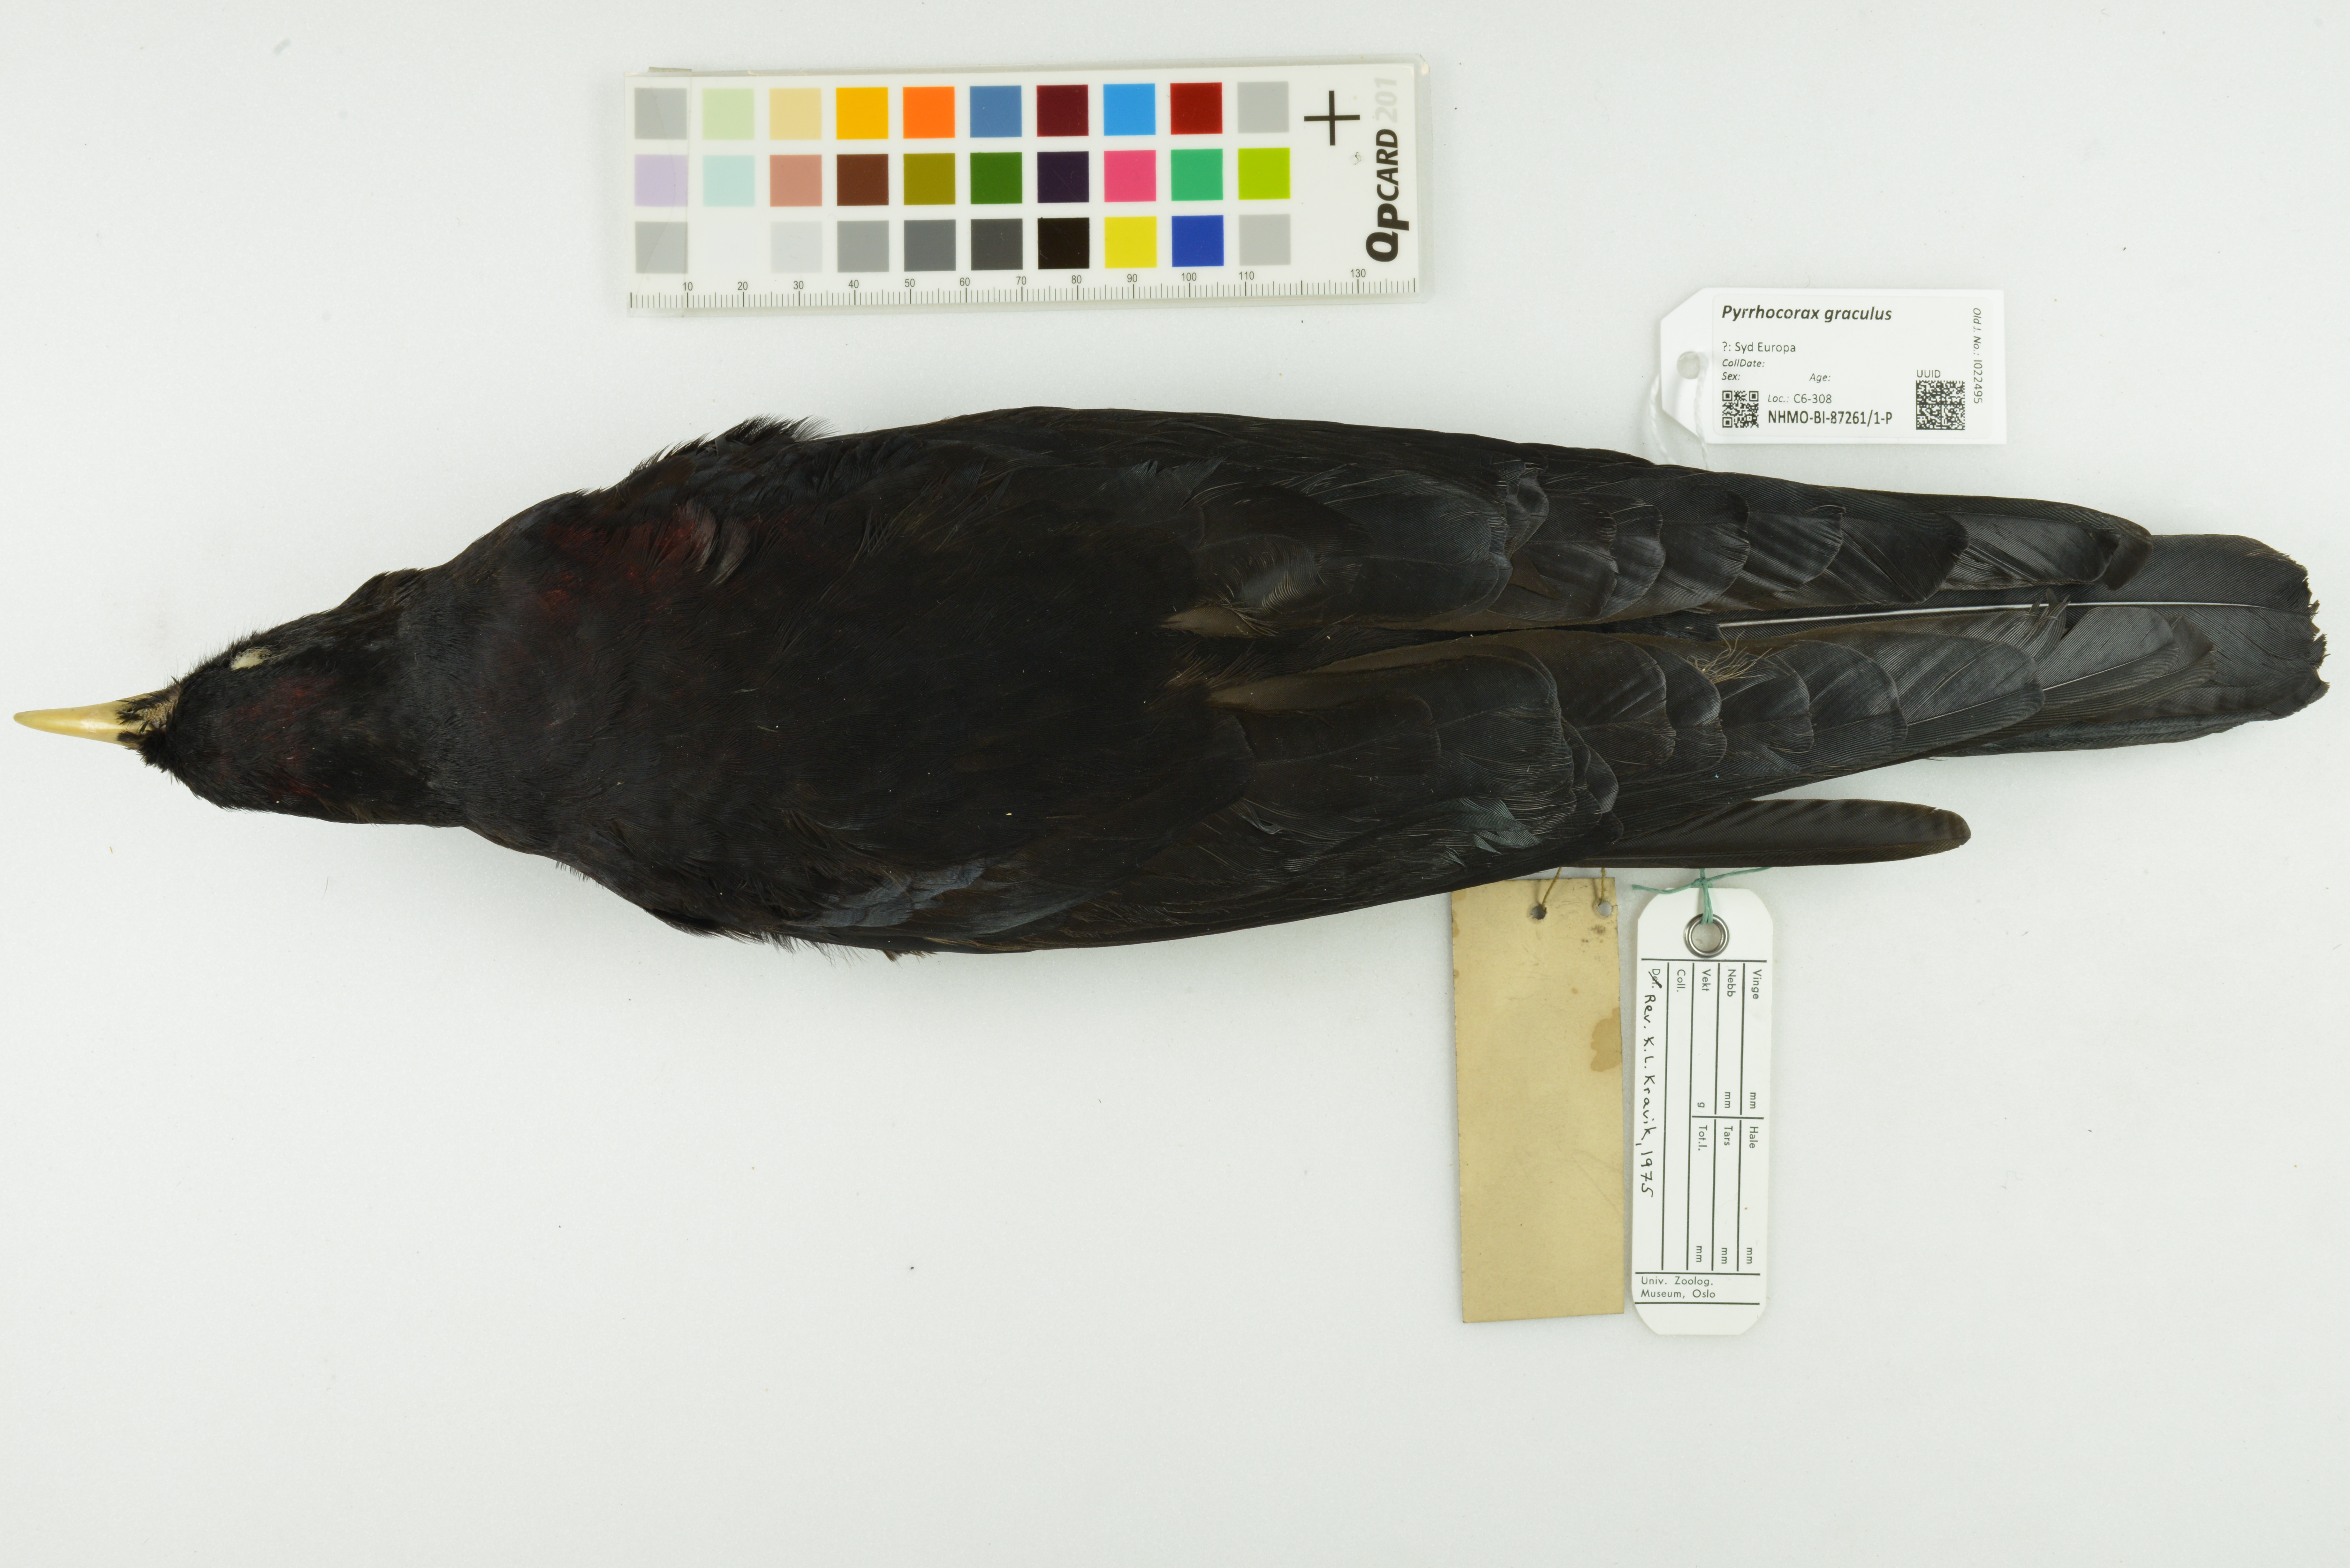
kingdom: Animalia
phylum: Chordata
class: Aves
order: Passeriformes
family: Corvidae
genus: Pyrrhocorax
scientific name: Pyrrhocorax graculus
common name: Alpine chough
